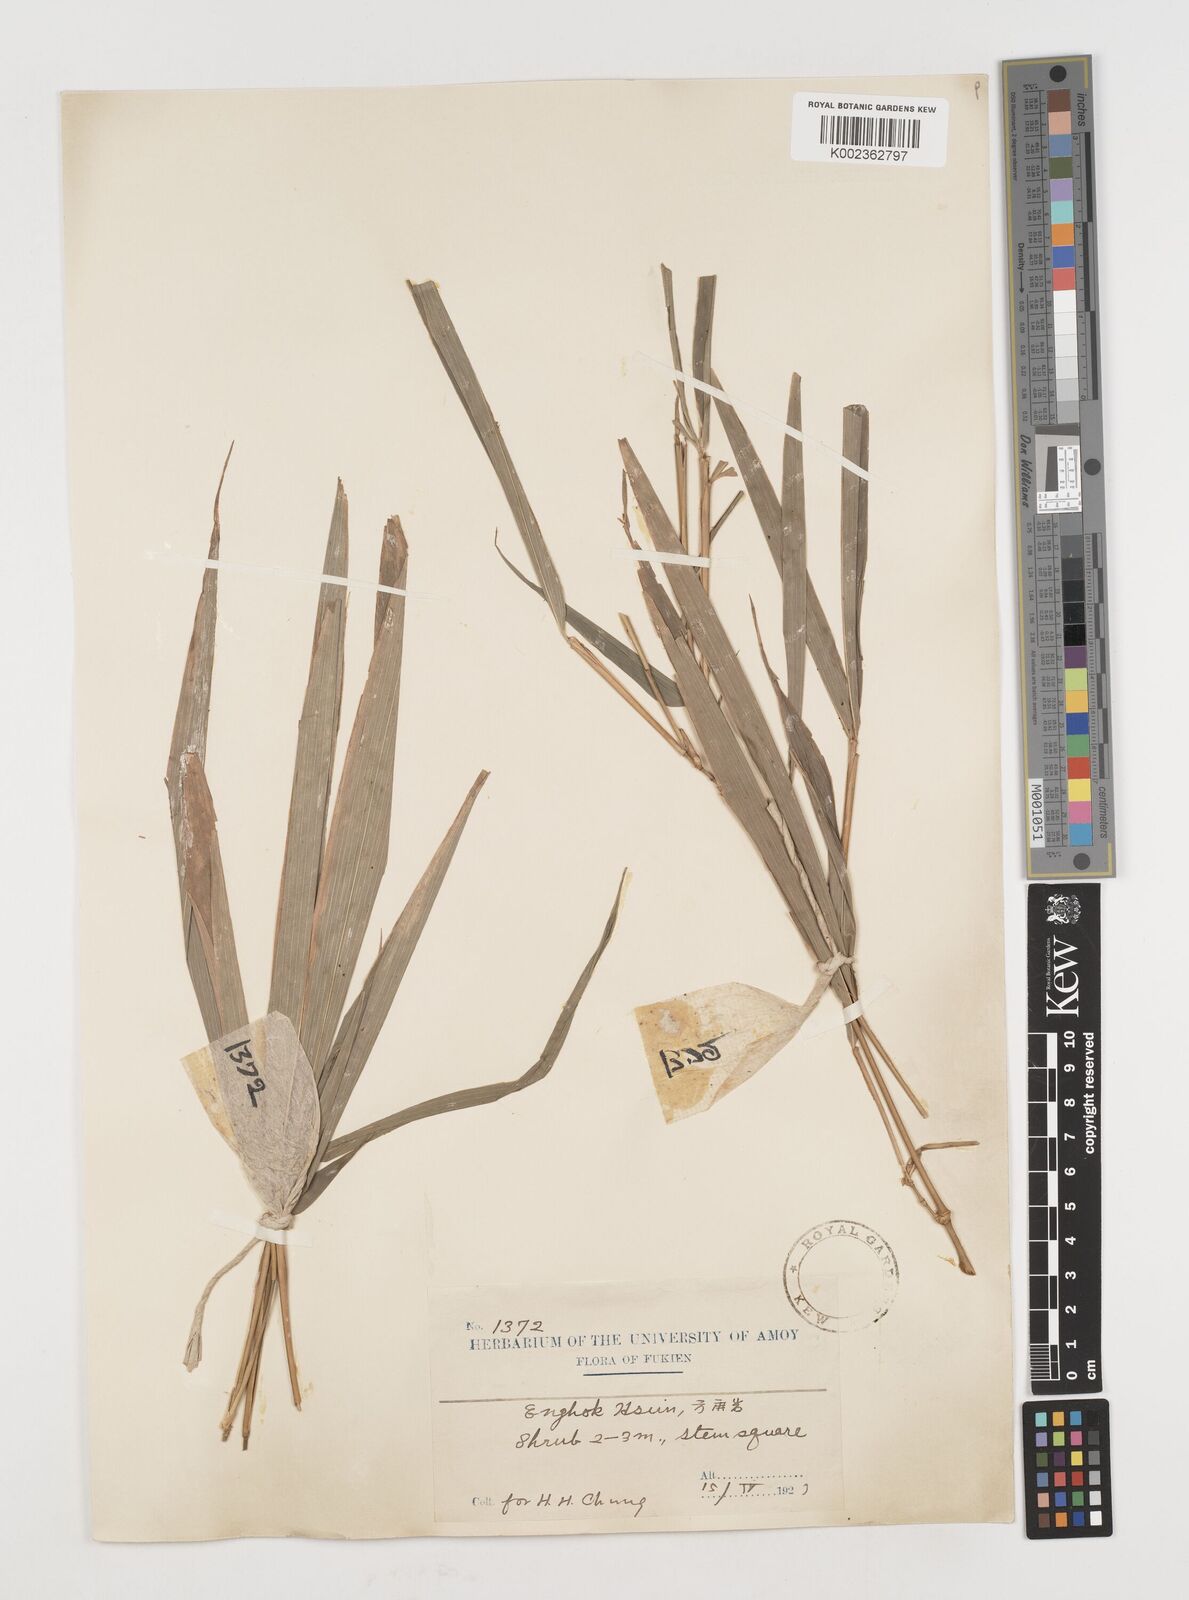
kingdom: Plantae
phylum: Tracheophyta
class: Liliopsida
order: Poales
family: Poaceae
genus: Chimonobambusa
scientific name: Chimonobambusa quadrangularis
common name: Square-stemmed bamboo
